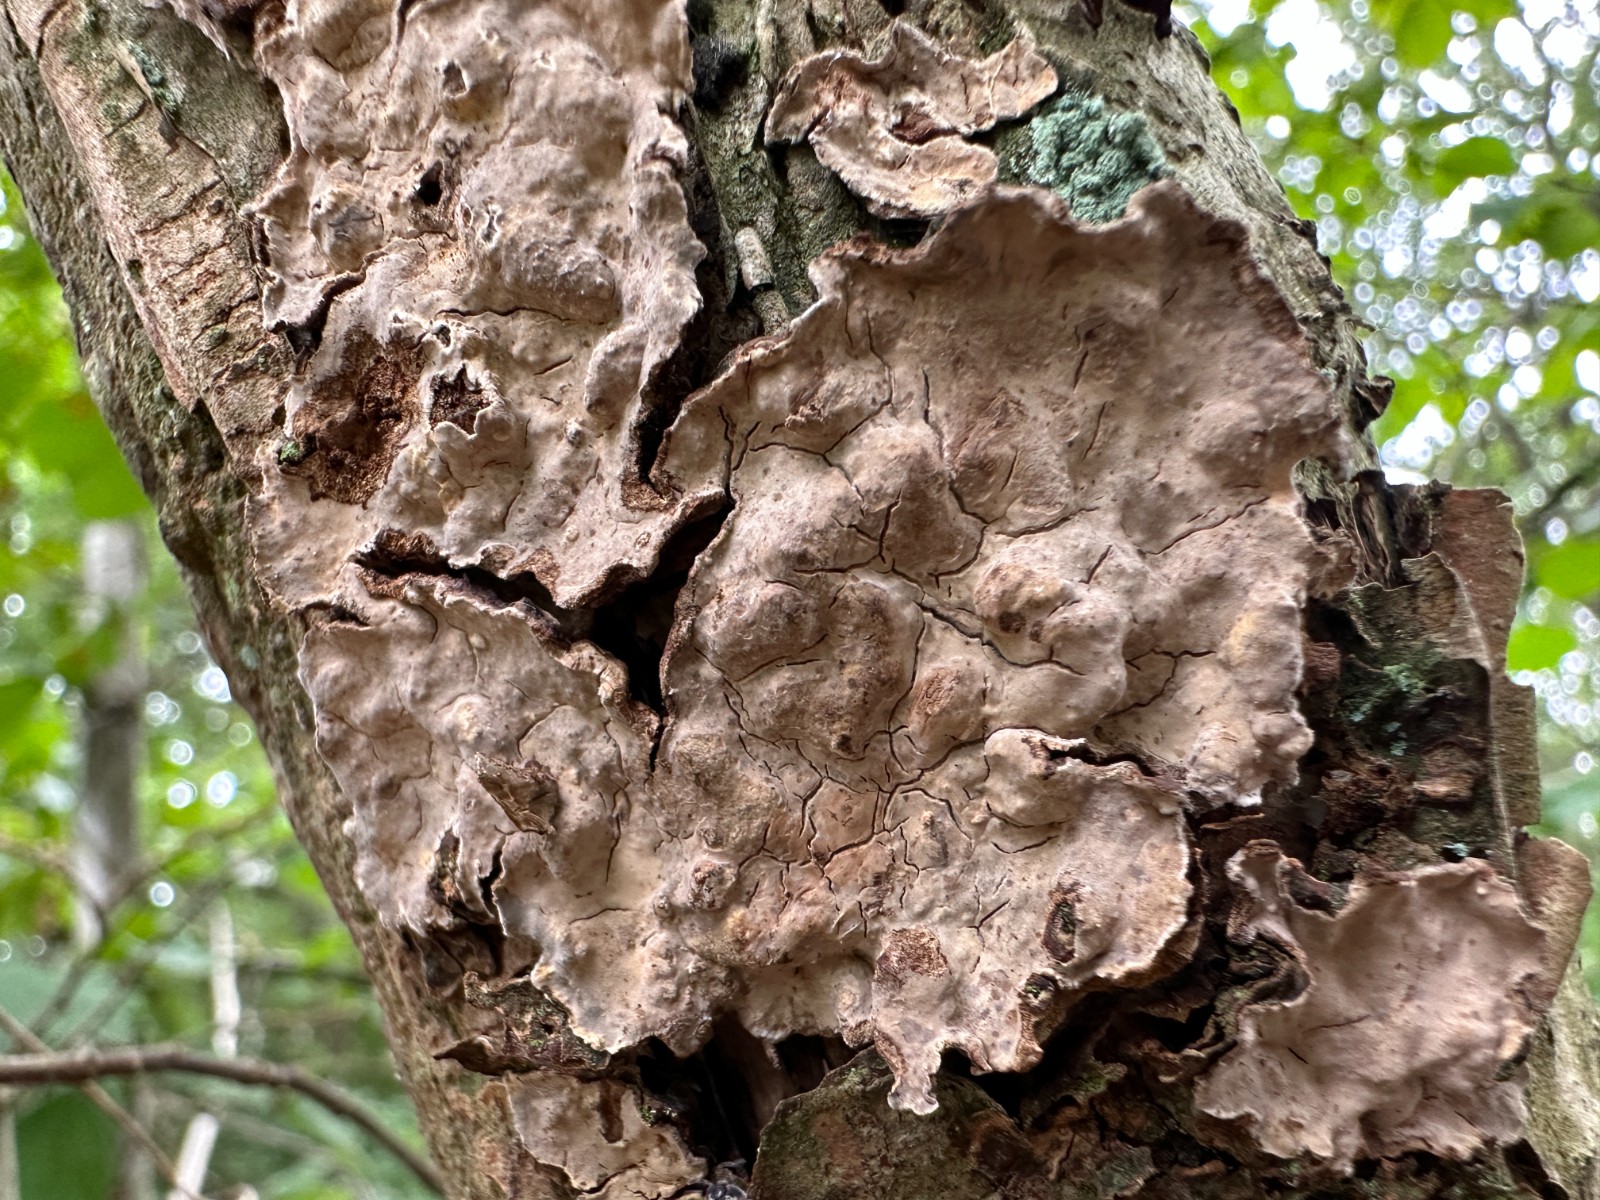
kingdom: Fungi
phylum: Basidiomycota
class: Agaricomycetes
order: Russulales
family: Stereaceae
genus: Stereum
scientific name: Stereum rugosum
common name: rynket lædersvamp
